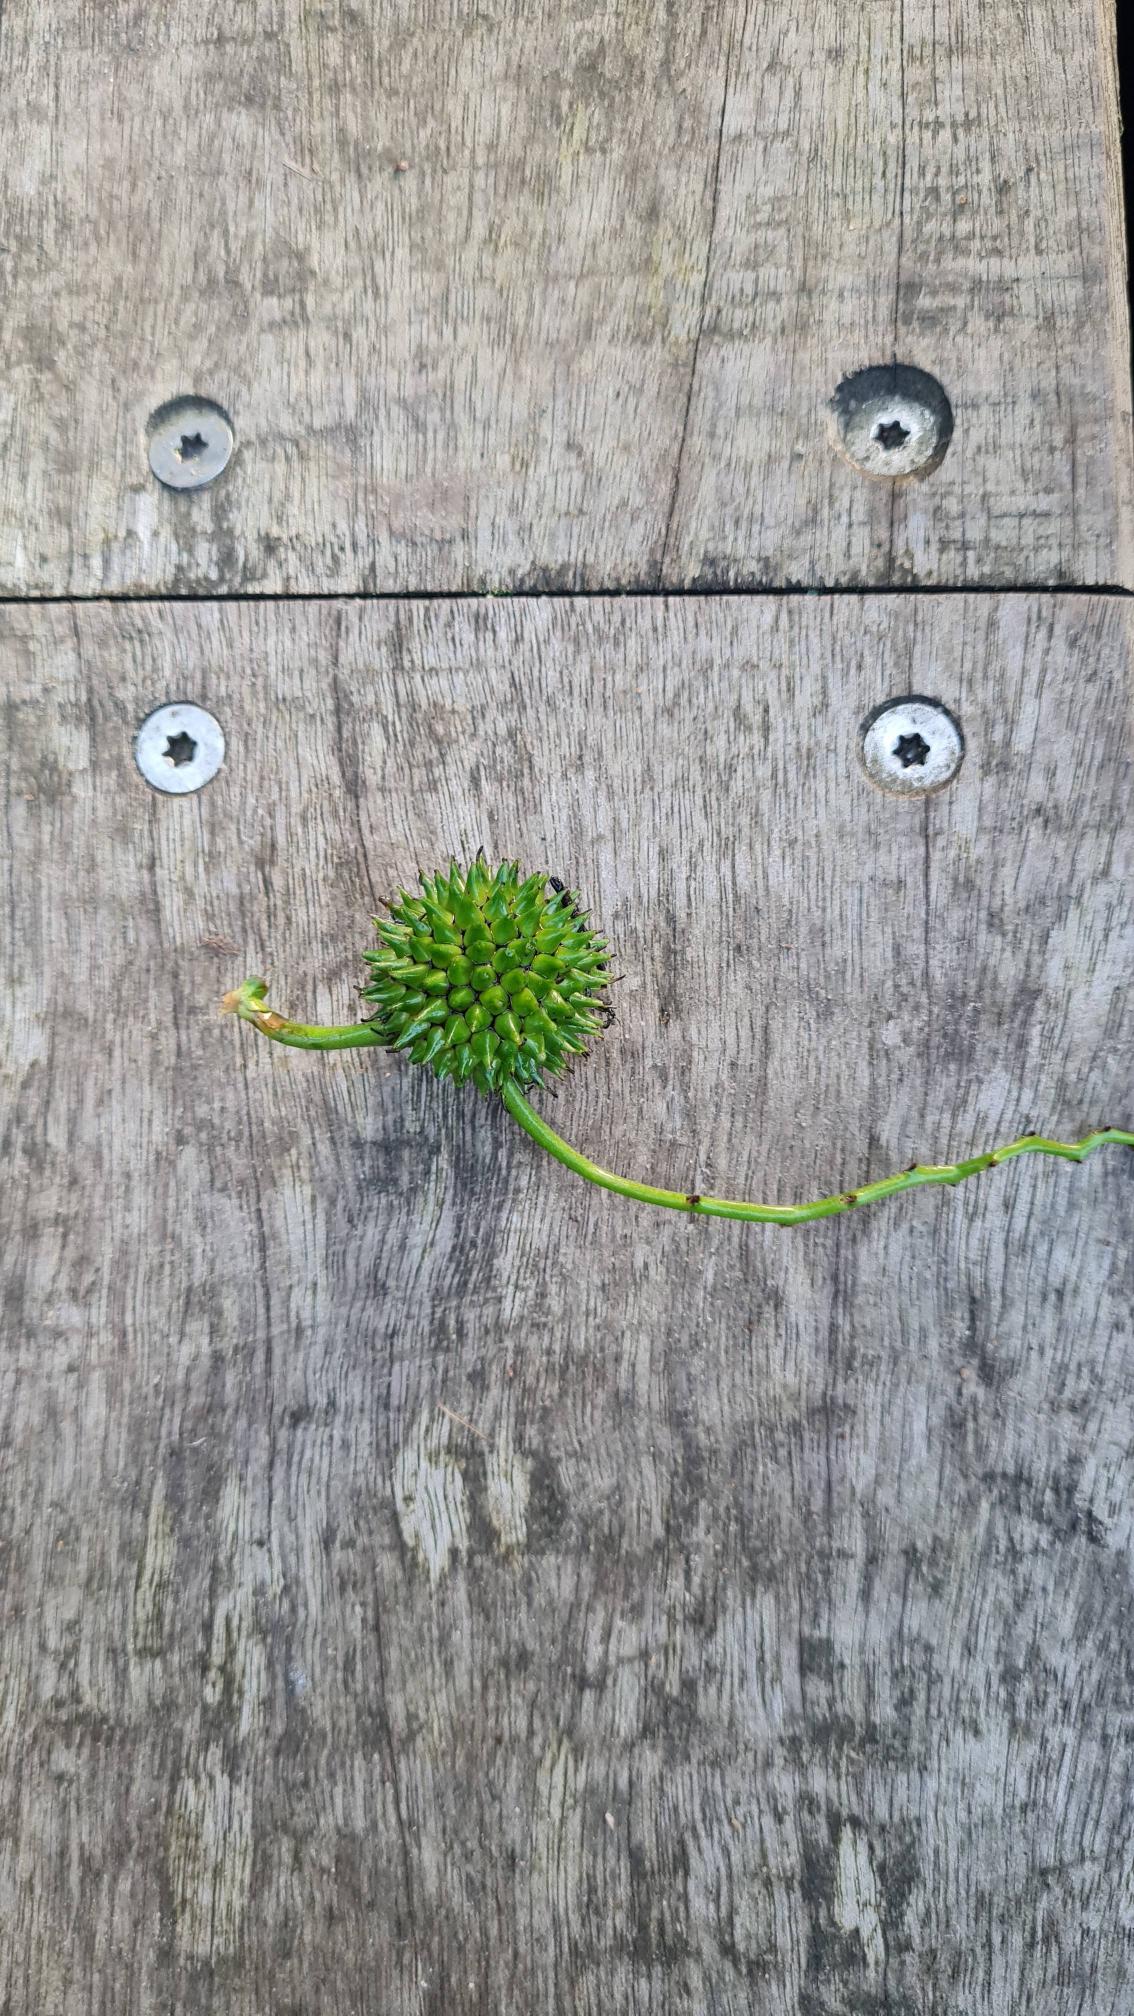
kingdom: Plantae
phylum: Tracheophyta
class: Liliopsida
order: Poales
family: Typhaceae
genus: Sparganium
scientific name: Sparganium erectum
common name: Grenet pindsvineknop
